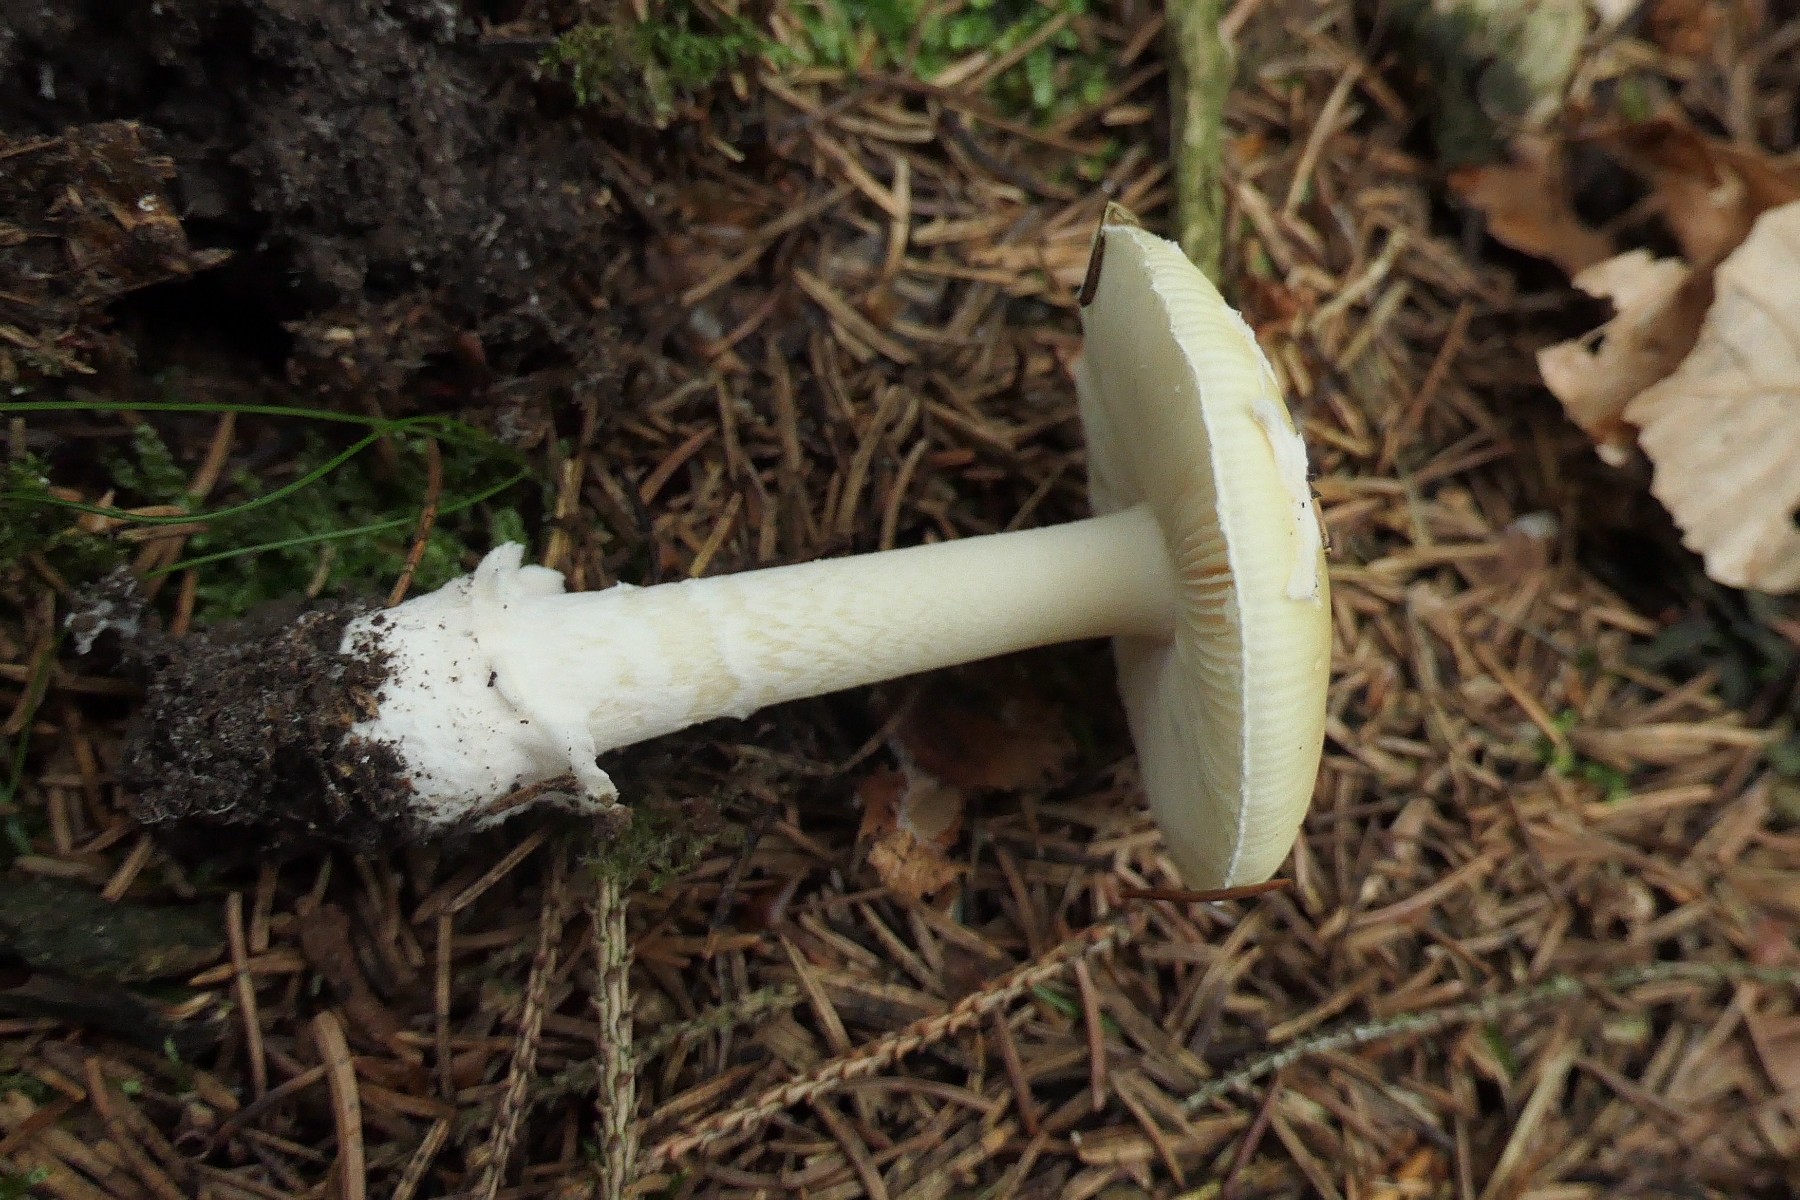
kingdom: Fungi
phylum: Basidiomycota
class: Agaricomycetes
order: Agaricales
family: Amanitaceae
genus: Amanita
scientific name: Amanita gemmata
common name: okkergul fluesvamp
